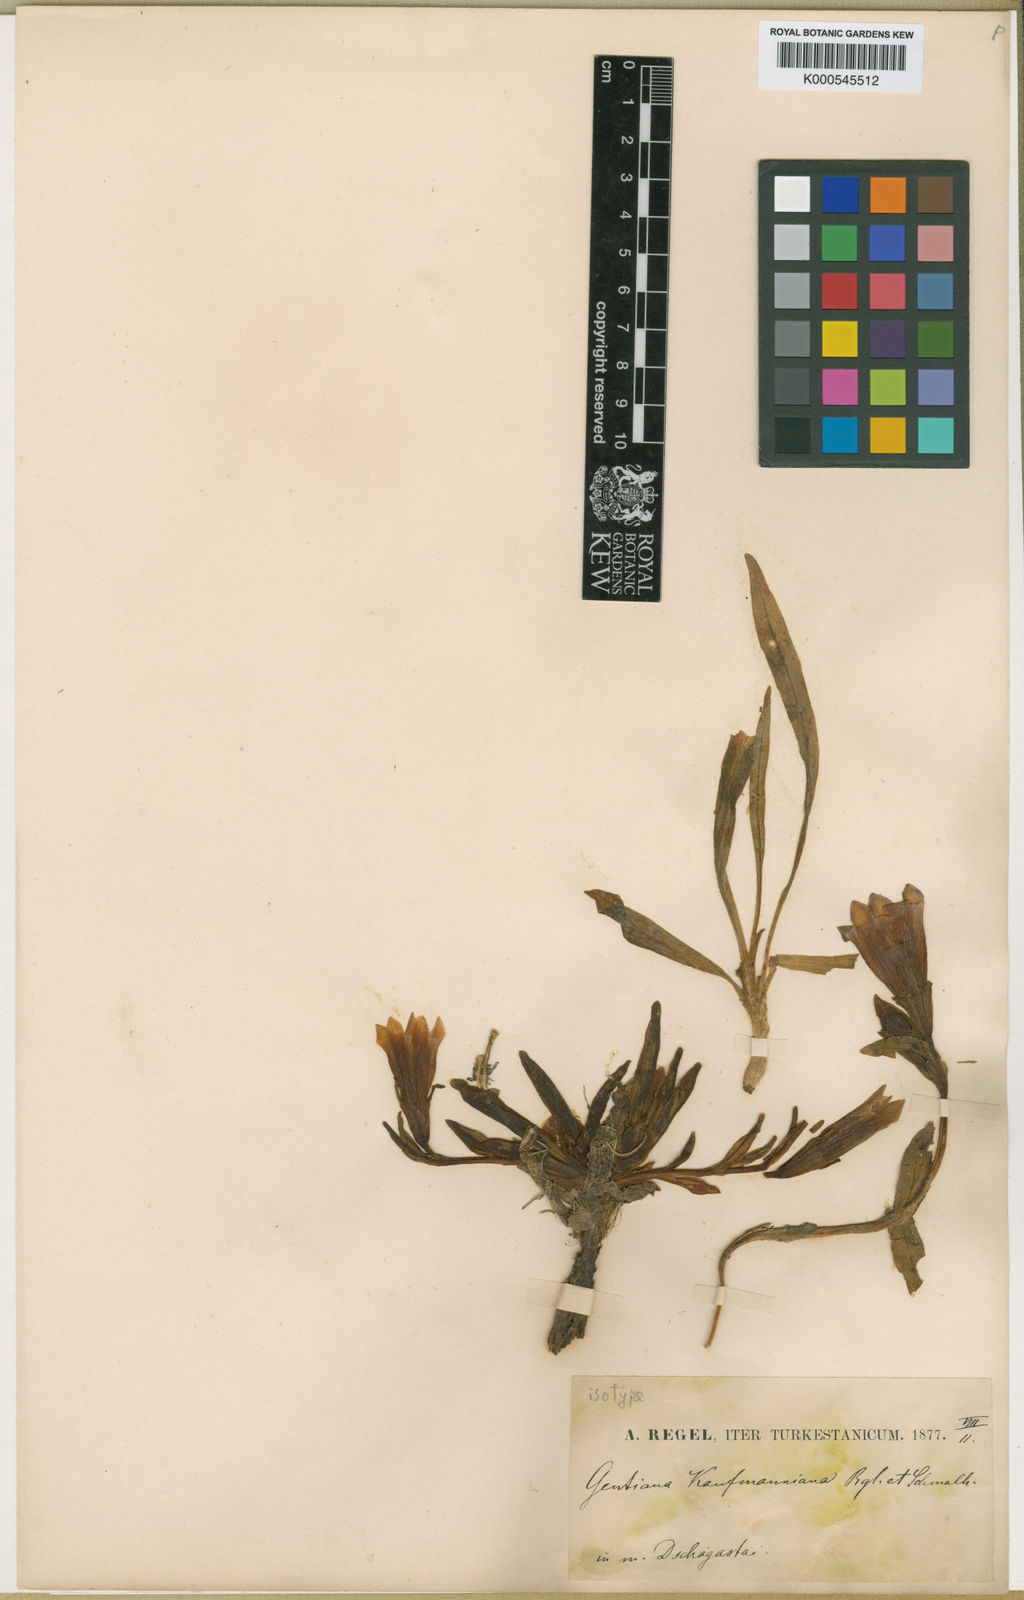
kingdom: Plantae
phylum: Tracheophyta
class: Magnoliopsida
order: Gentianales
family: Gentianaceae
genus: Gentiana
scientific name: Gentiana kauffmanniana
